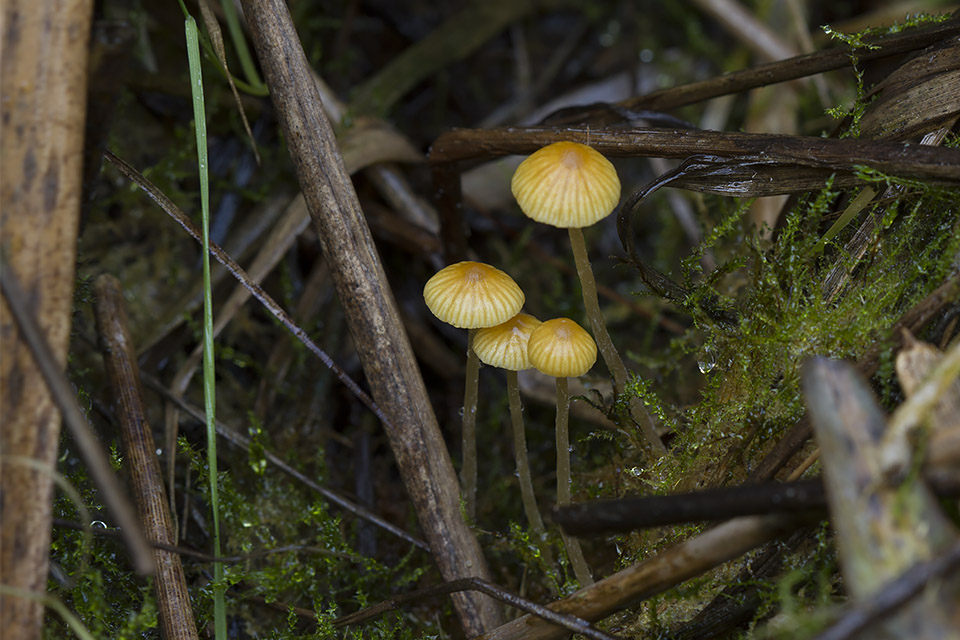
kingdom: Fungi
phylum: Basidiomycota
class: Agaricomycetes
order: Agaricales
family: Hymenogastraceae
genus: Galerina
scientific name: Galerina graminea
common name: plæne-hjelmhat
